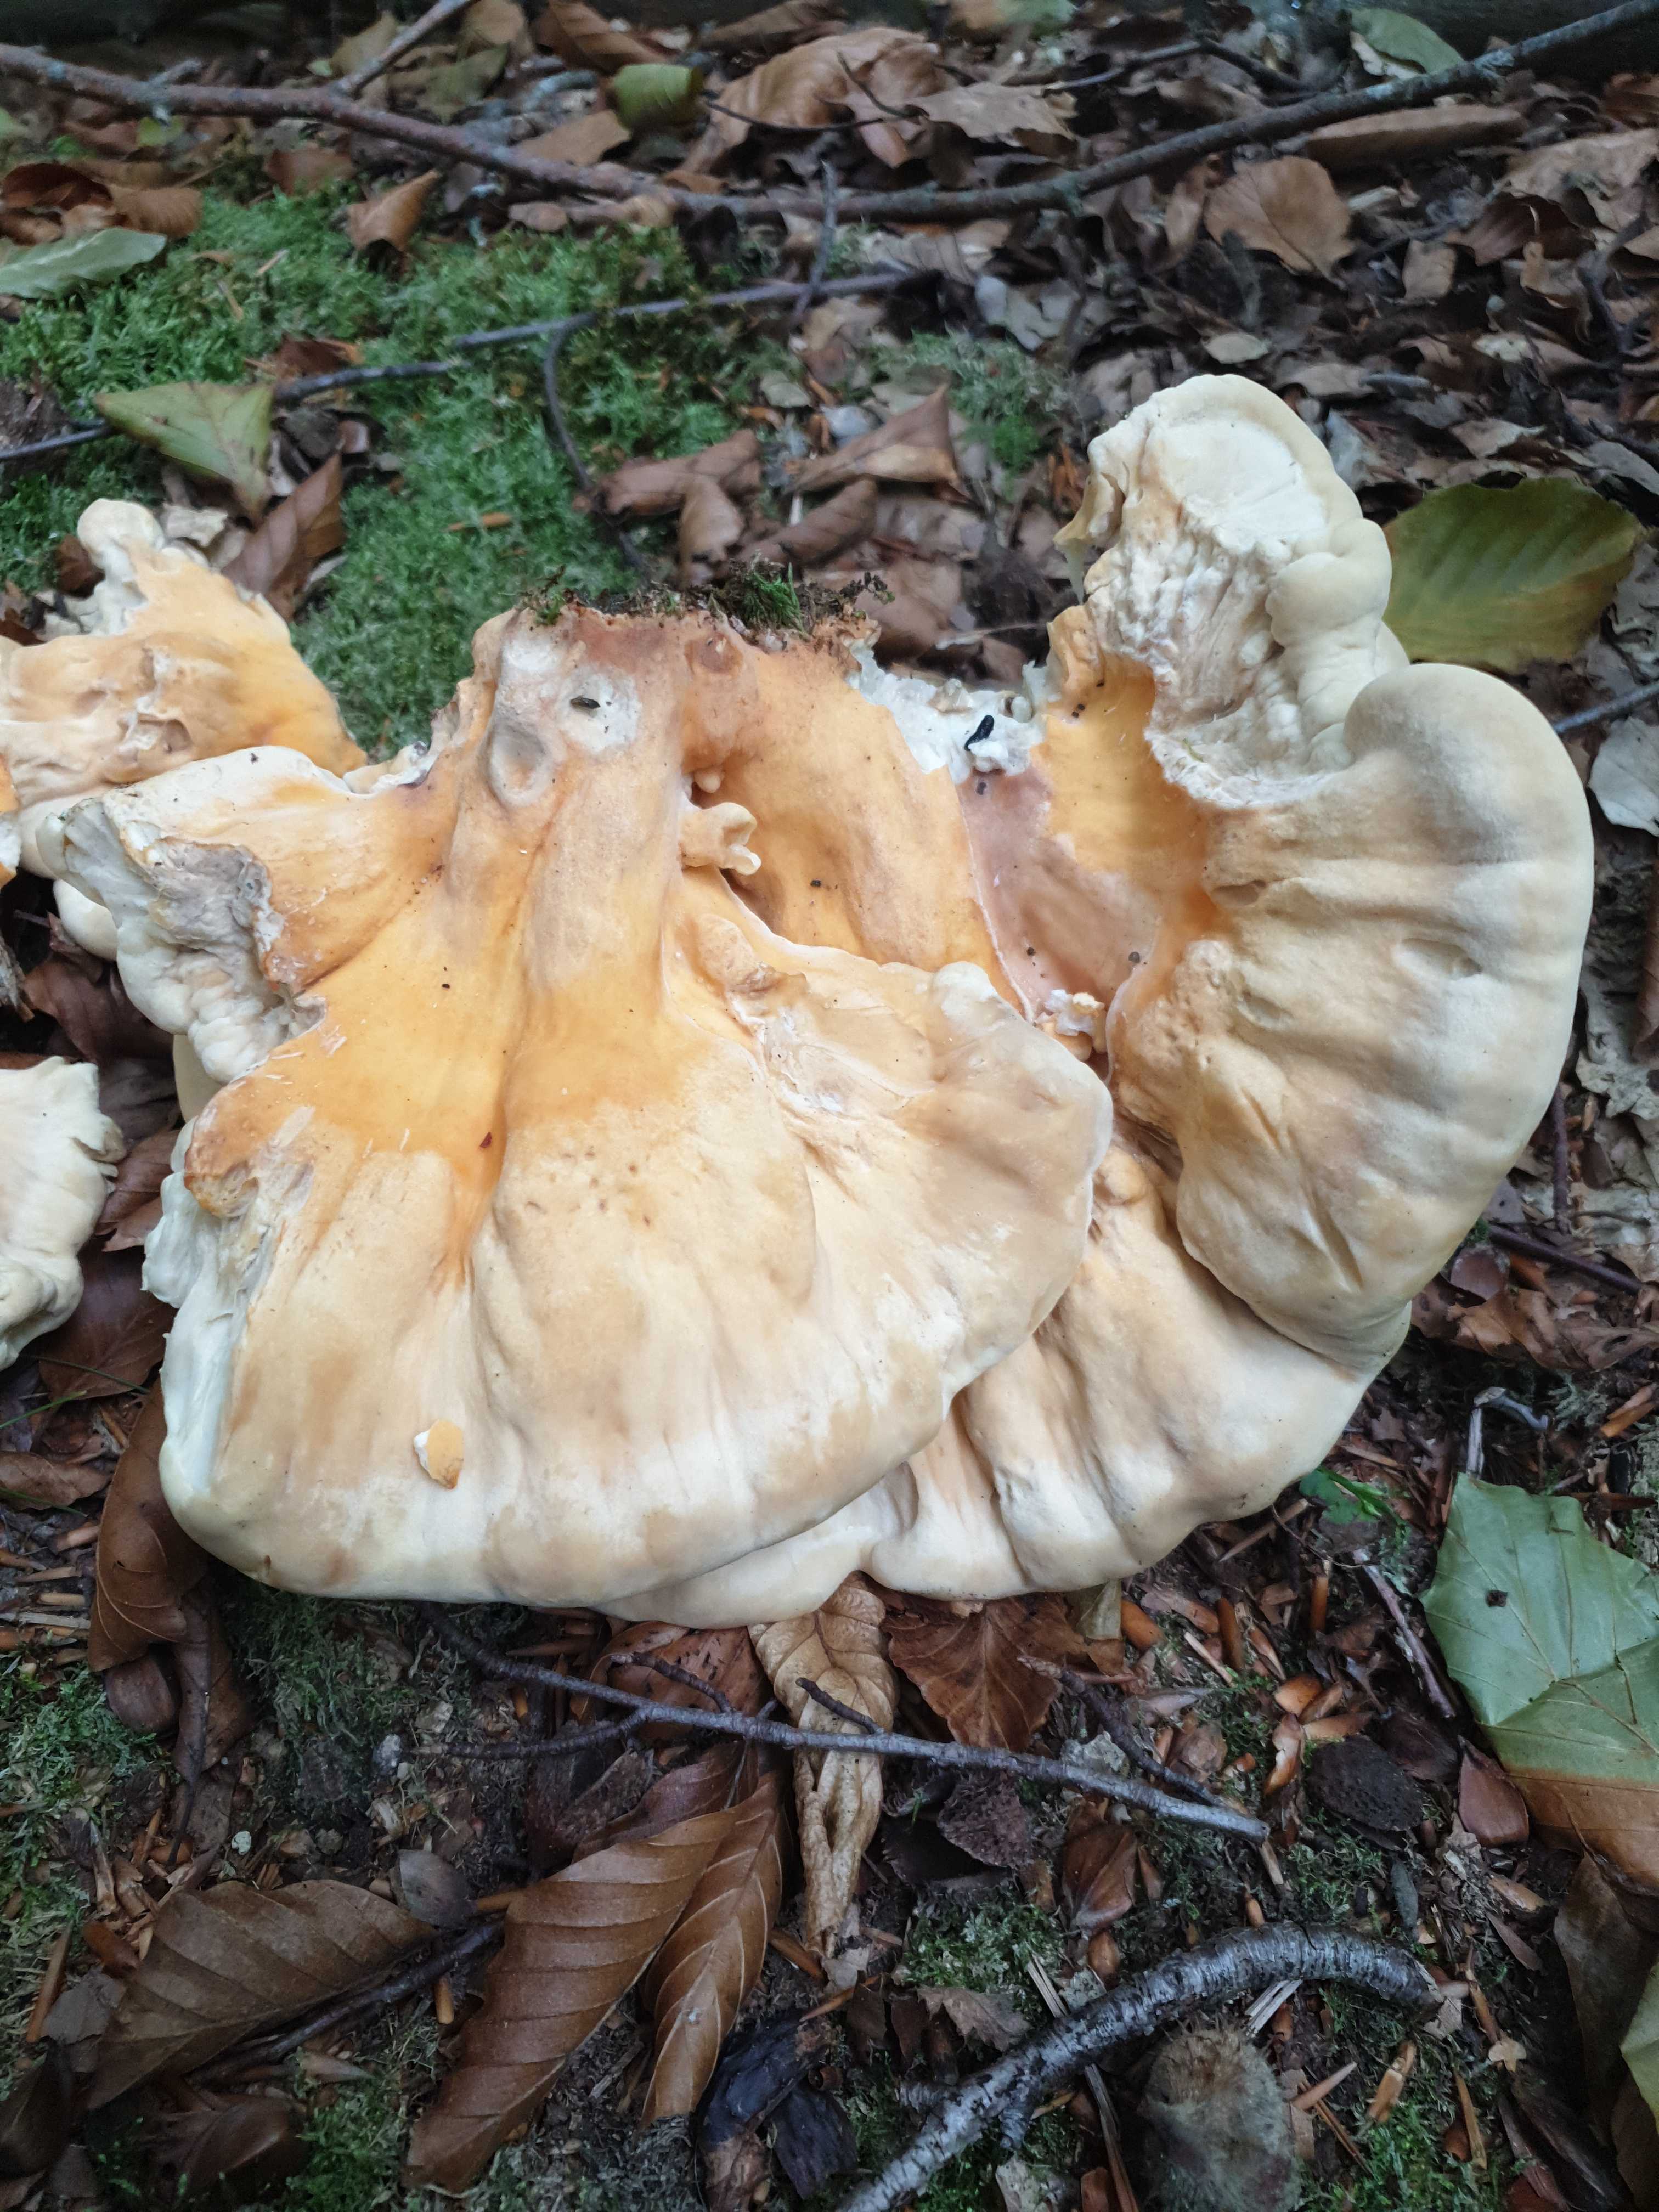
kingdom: Fungi
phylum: Basidiomycota
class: Agaricomycetes
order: Polyporales
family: Laetiporaceae
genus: Laetiporus
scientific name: Laetiporus sulphureus
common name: svovlporesvamp
